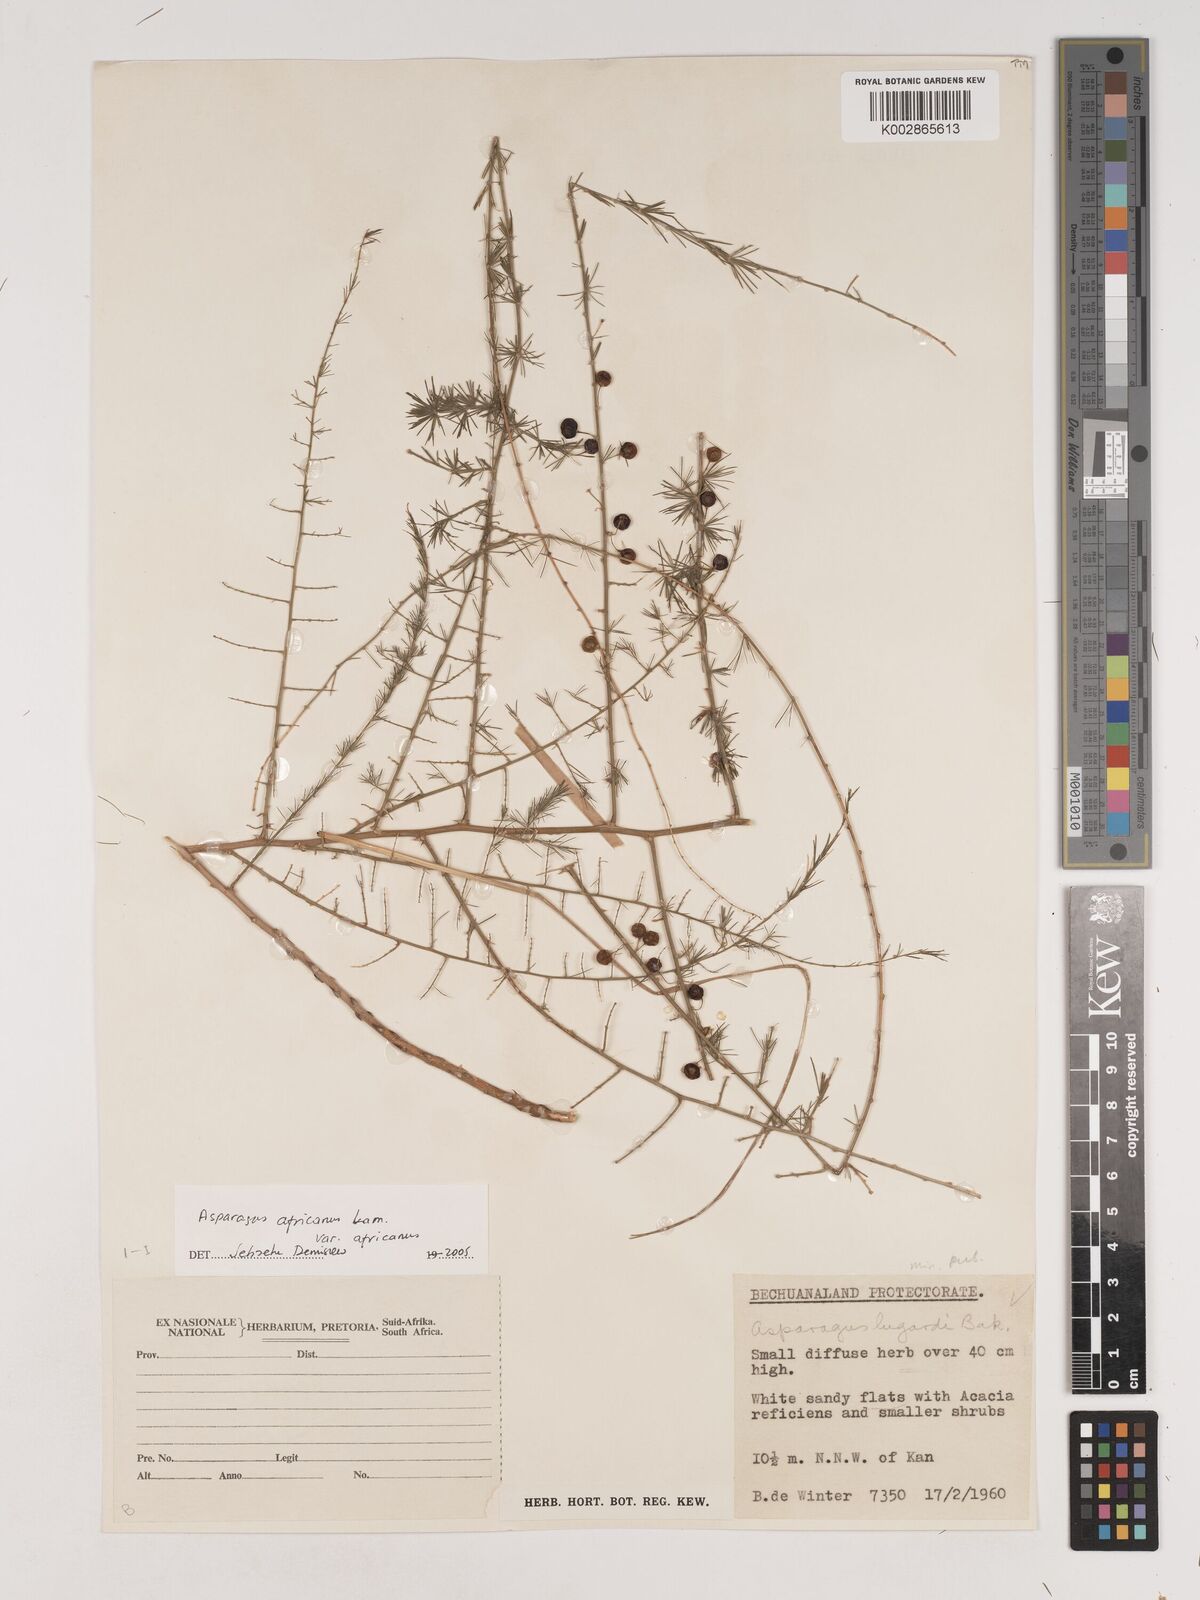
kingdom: Plantae
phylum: Tracheophyta
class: Liliopsida
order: Asparagales
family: Asparagaceae
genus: Asparagus
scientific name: Asparagus africanus
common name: Asparagus-fern
